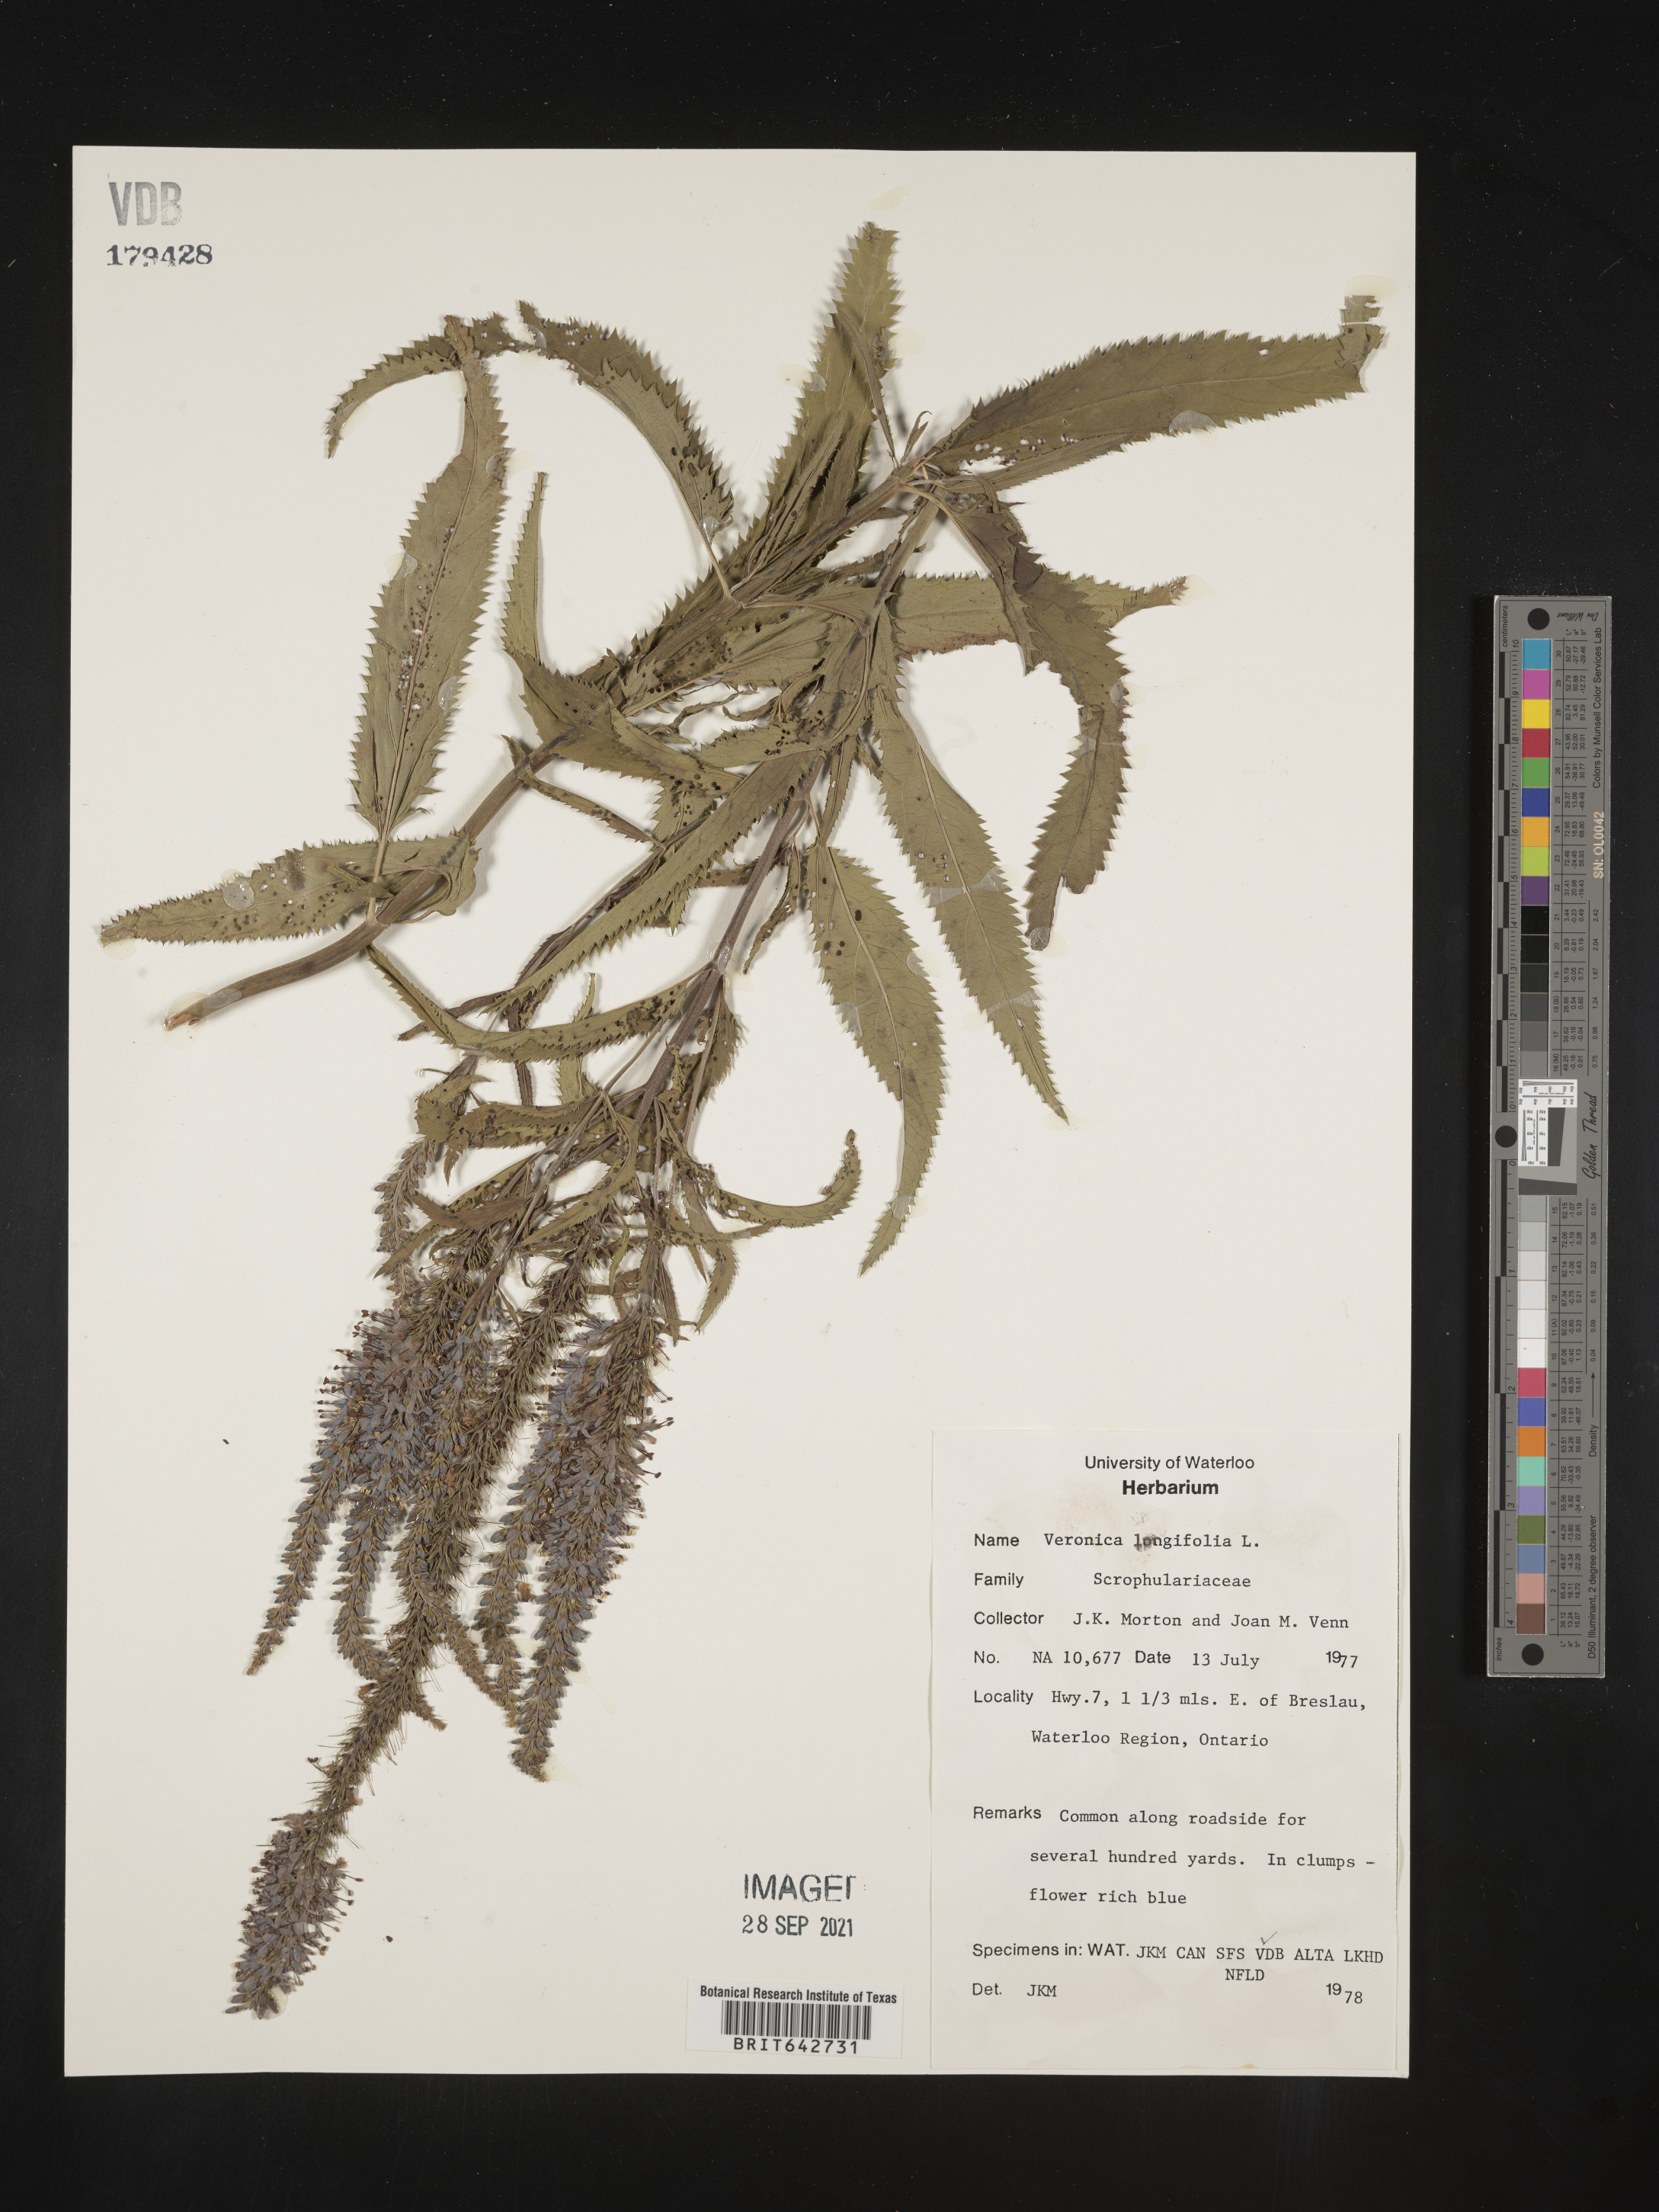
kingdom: Plantae
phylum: Tracheophyta
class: Magnoliopsida
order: Lamiales
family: Plantaginaceae
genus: Veronica
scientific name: Veronica
